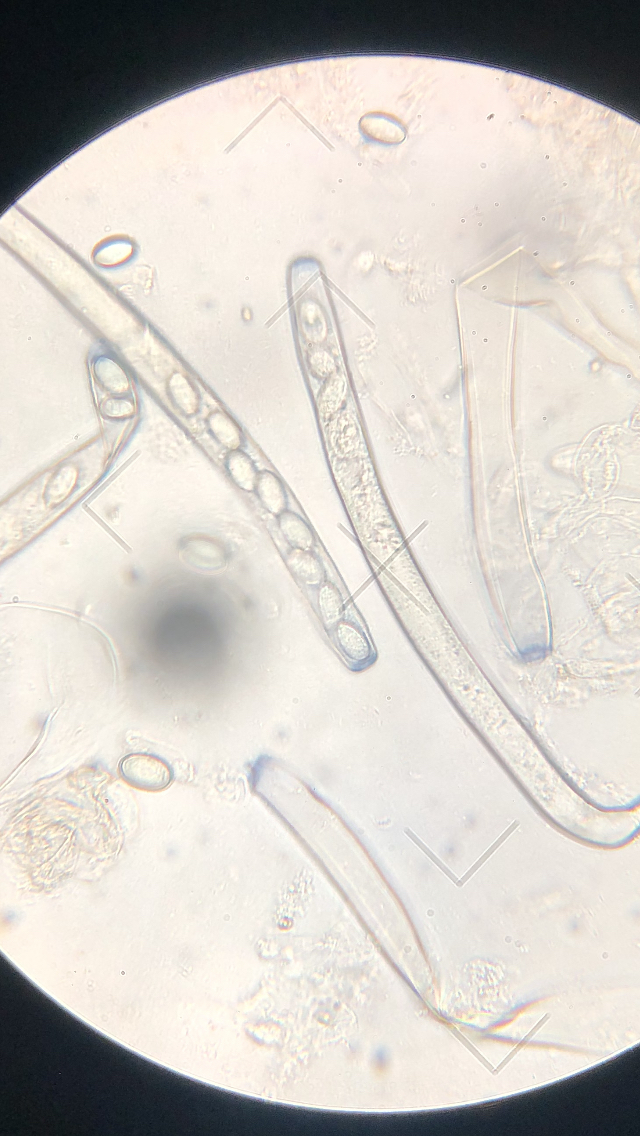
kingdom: Fungi
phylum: Ascomycota
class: Pezizomycetes
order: Pezizales
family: Pezizaceae
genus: Peziza
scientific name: Peziza vesiculosa
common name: blære-bægersvamp
